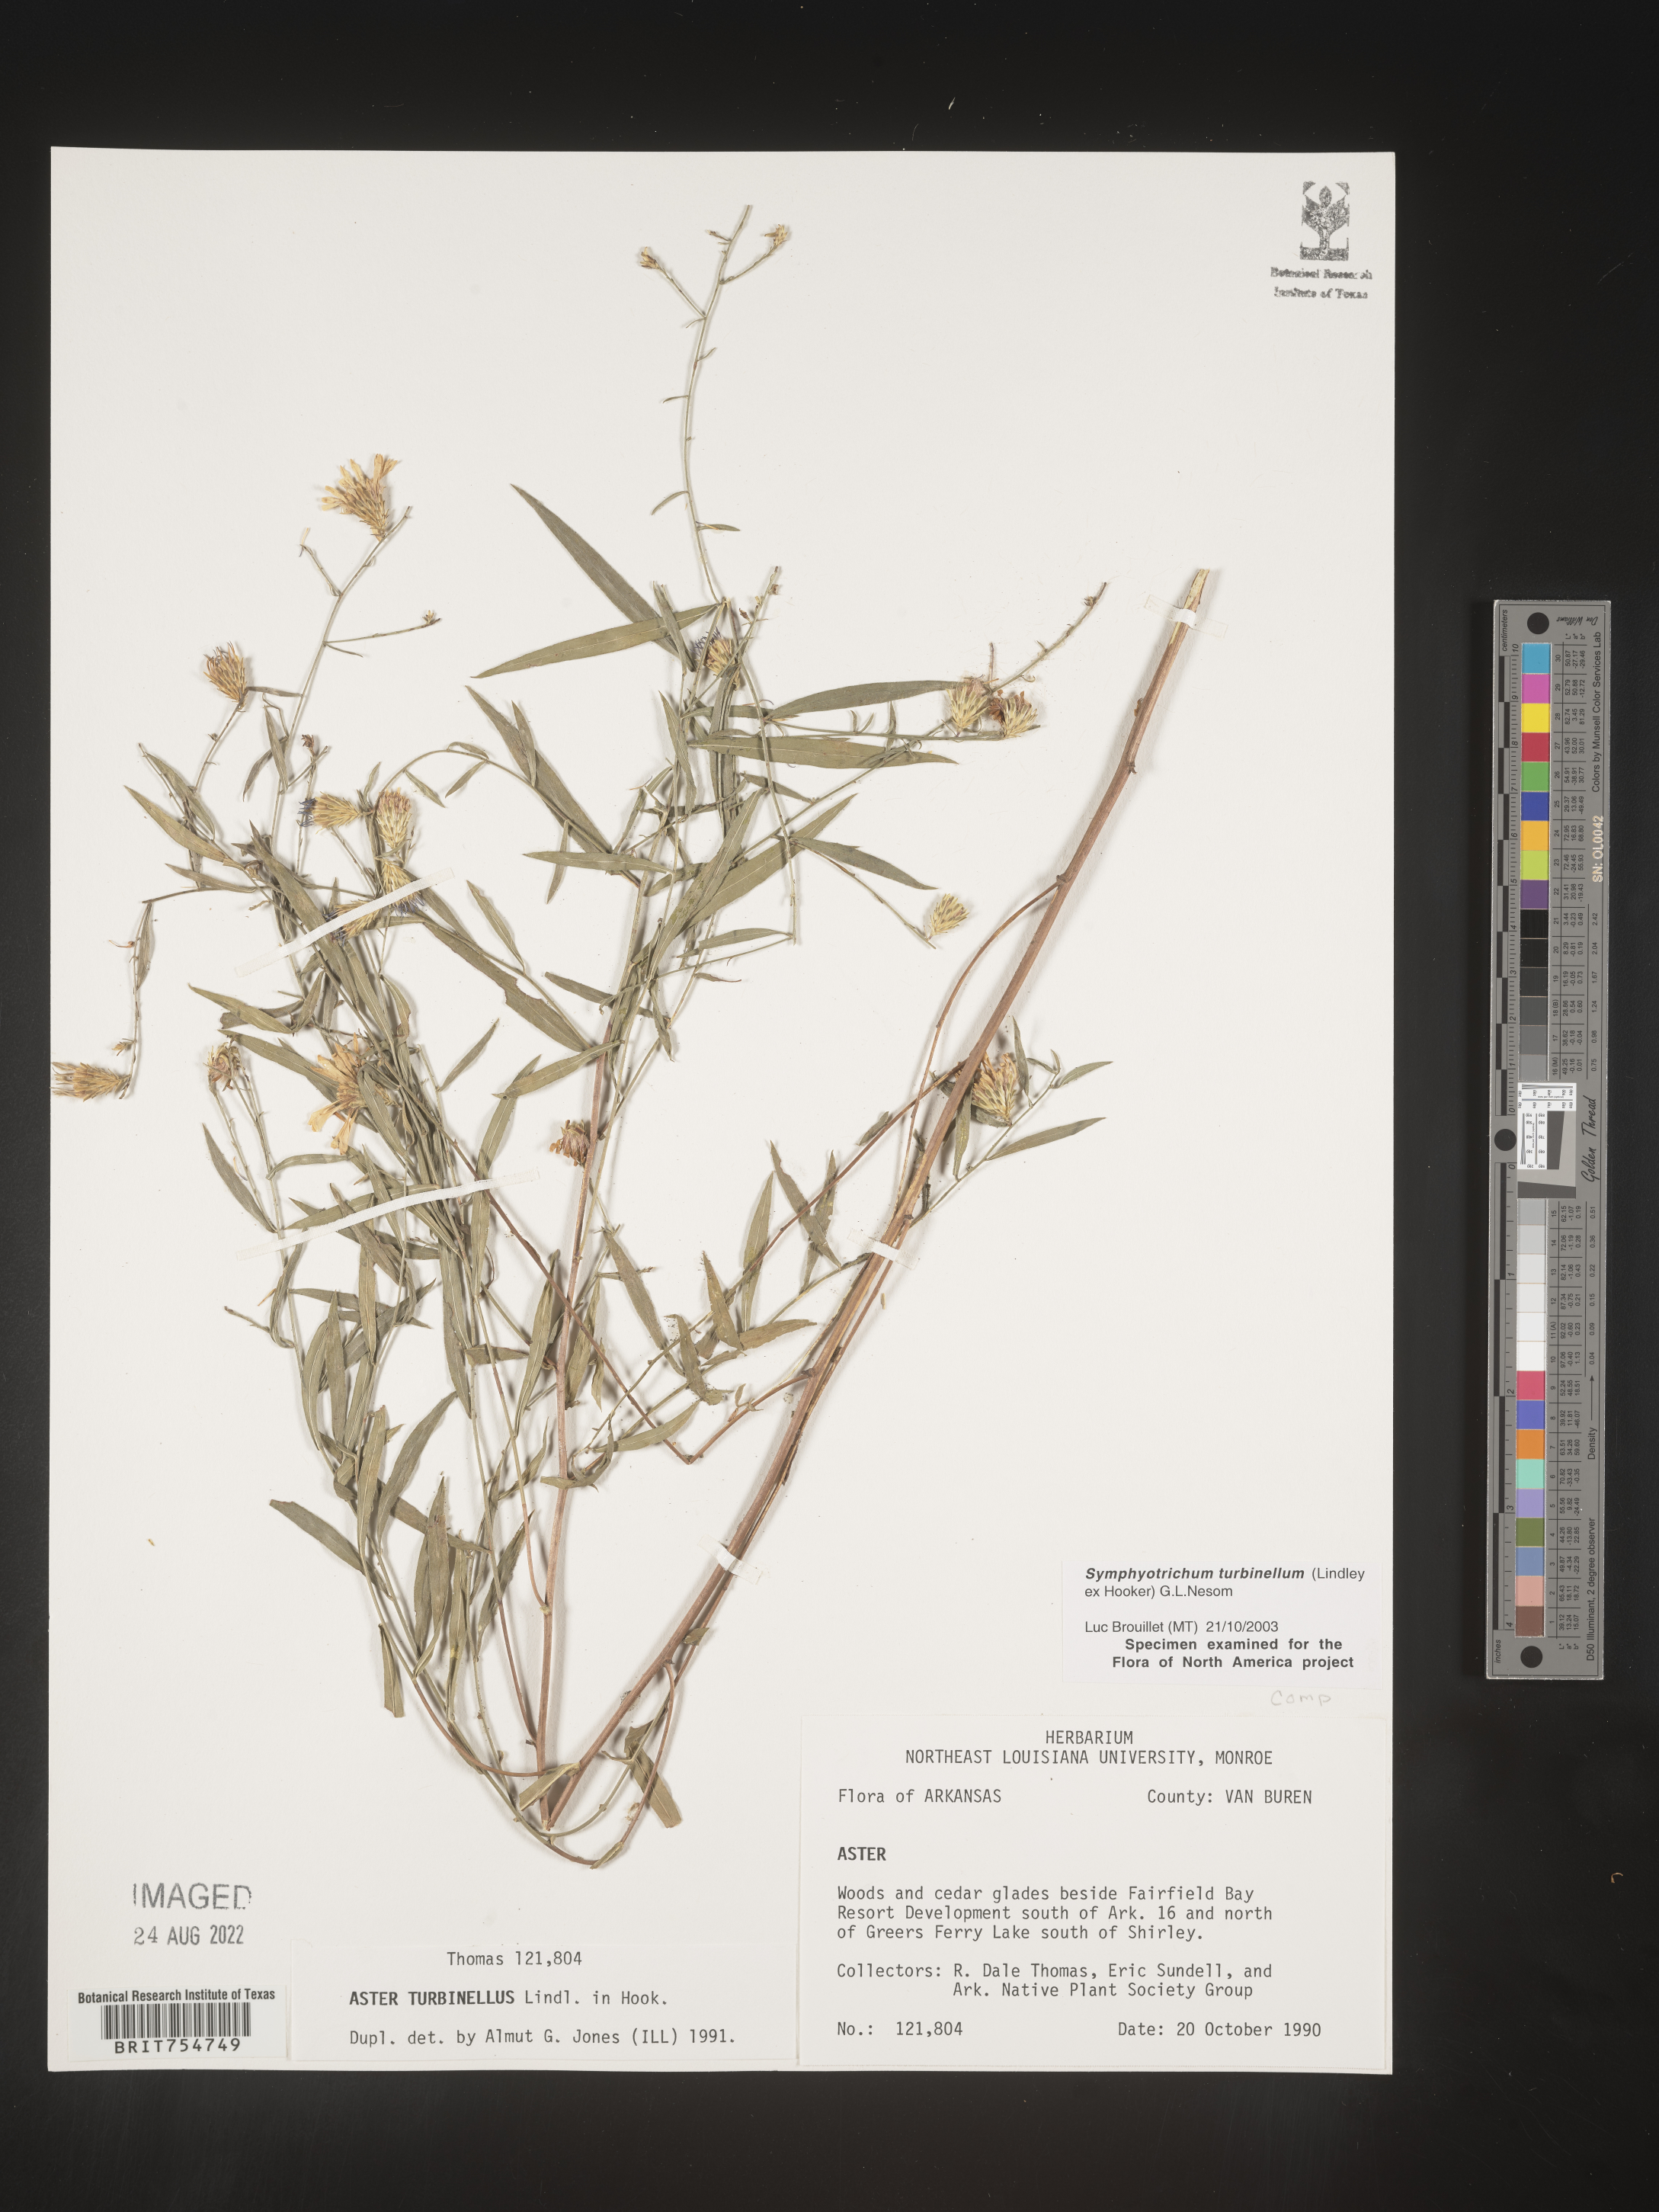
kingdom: Plantae
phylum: Tracheophyta
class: Magnoliopsida
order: Asterales
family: Asteraceae
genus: Symphyotrichum
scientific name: Symphyotrichum turbinellum
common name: Prairie aster
